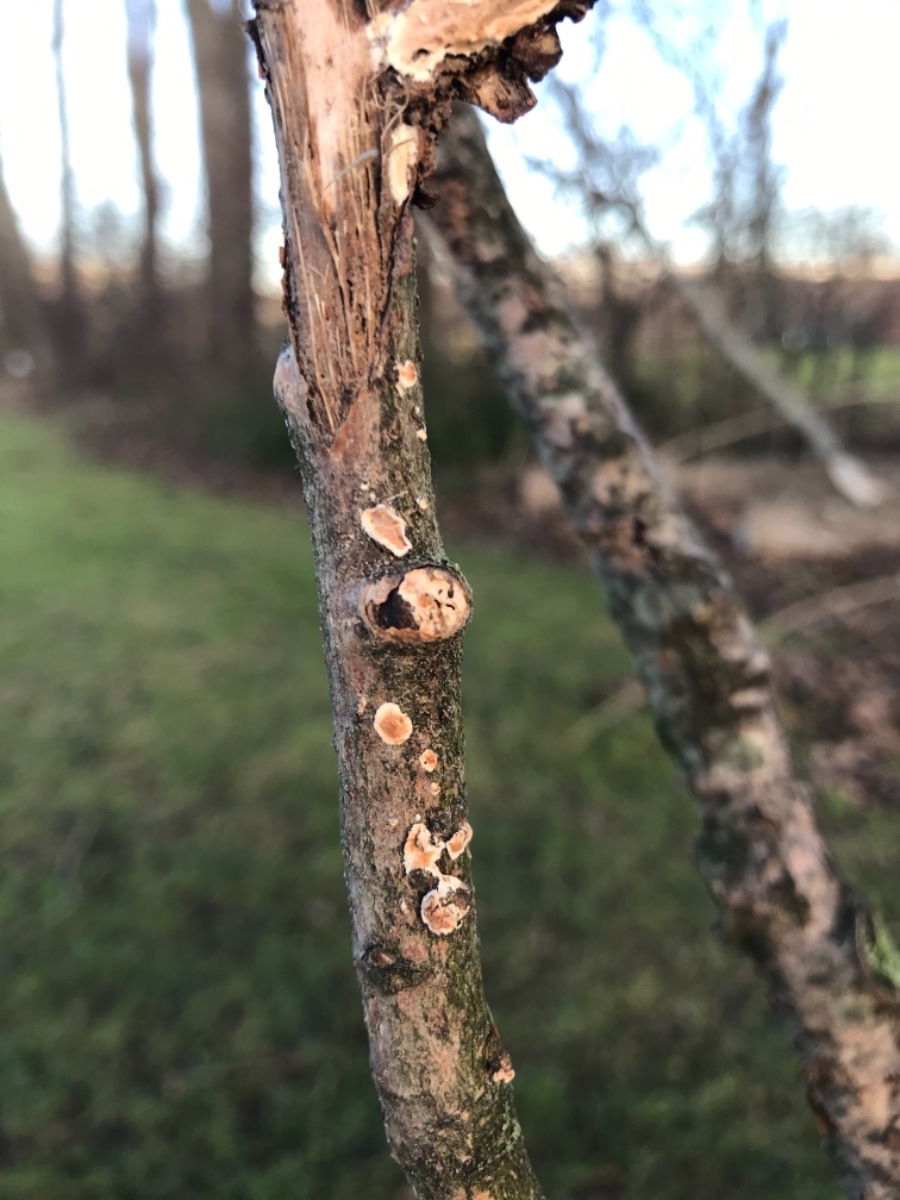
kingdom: Fungi
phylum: Basidiomycota
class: Agaricomycetes
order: Corticiales
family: Corticiaceae
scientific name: Corticiaceae
